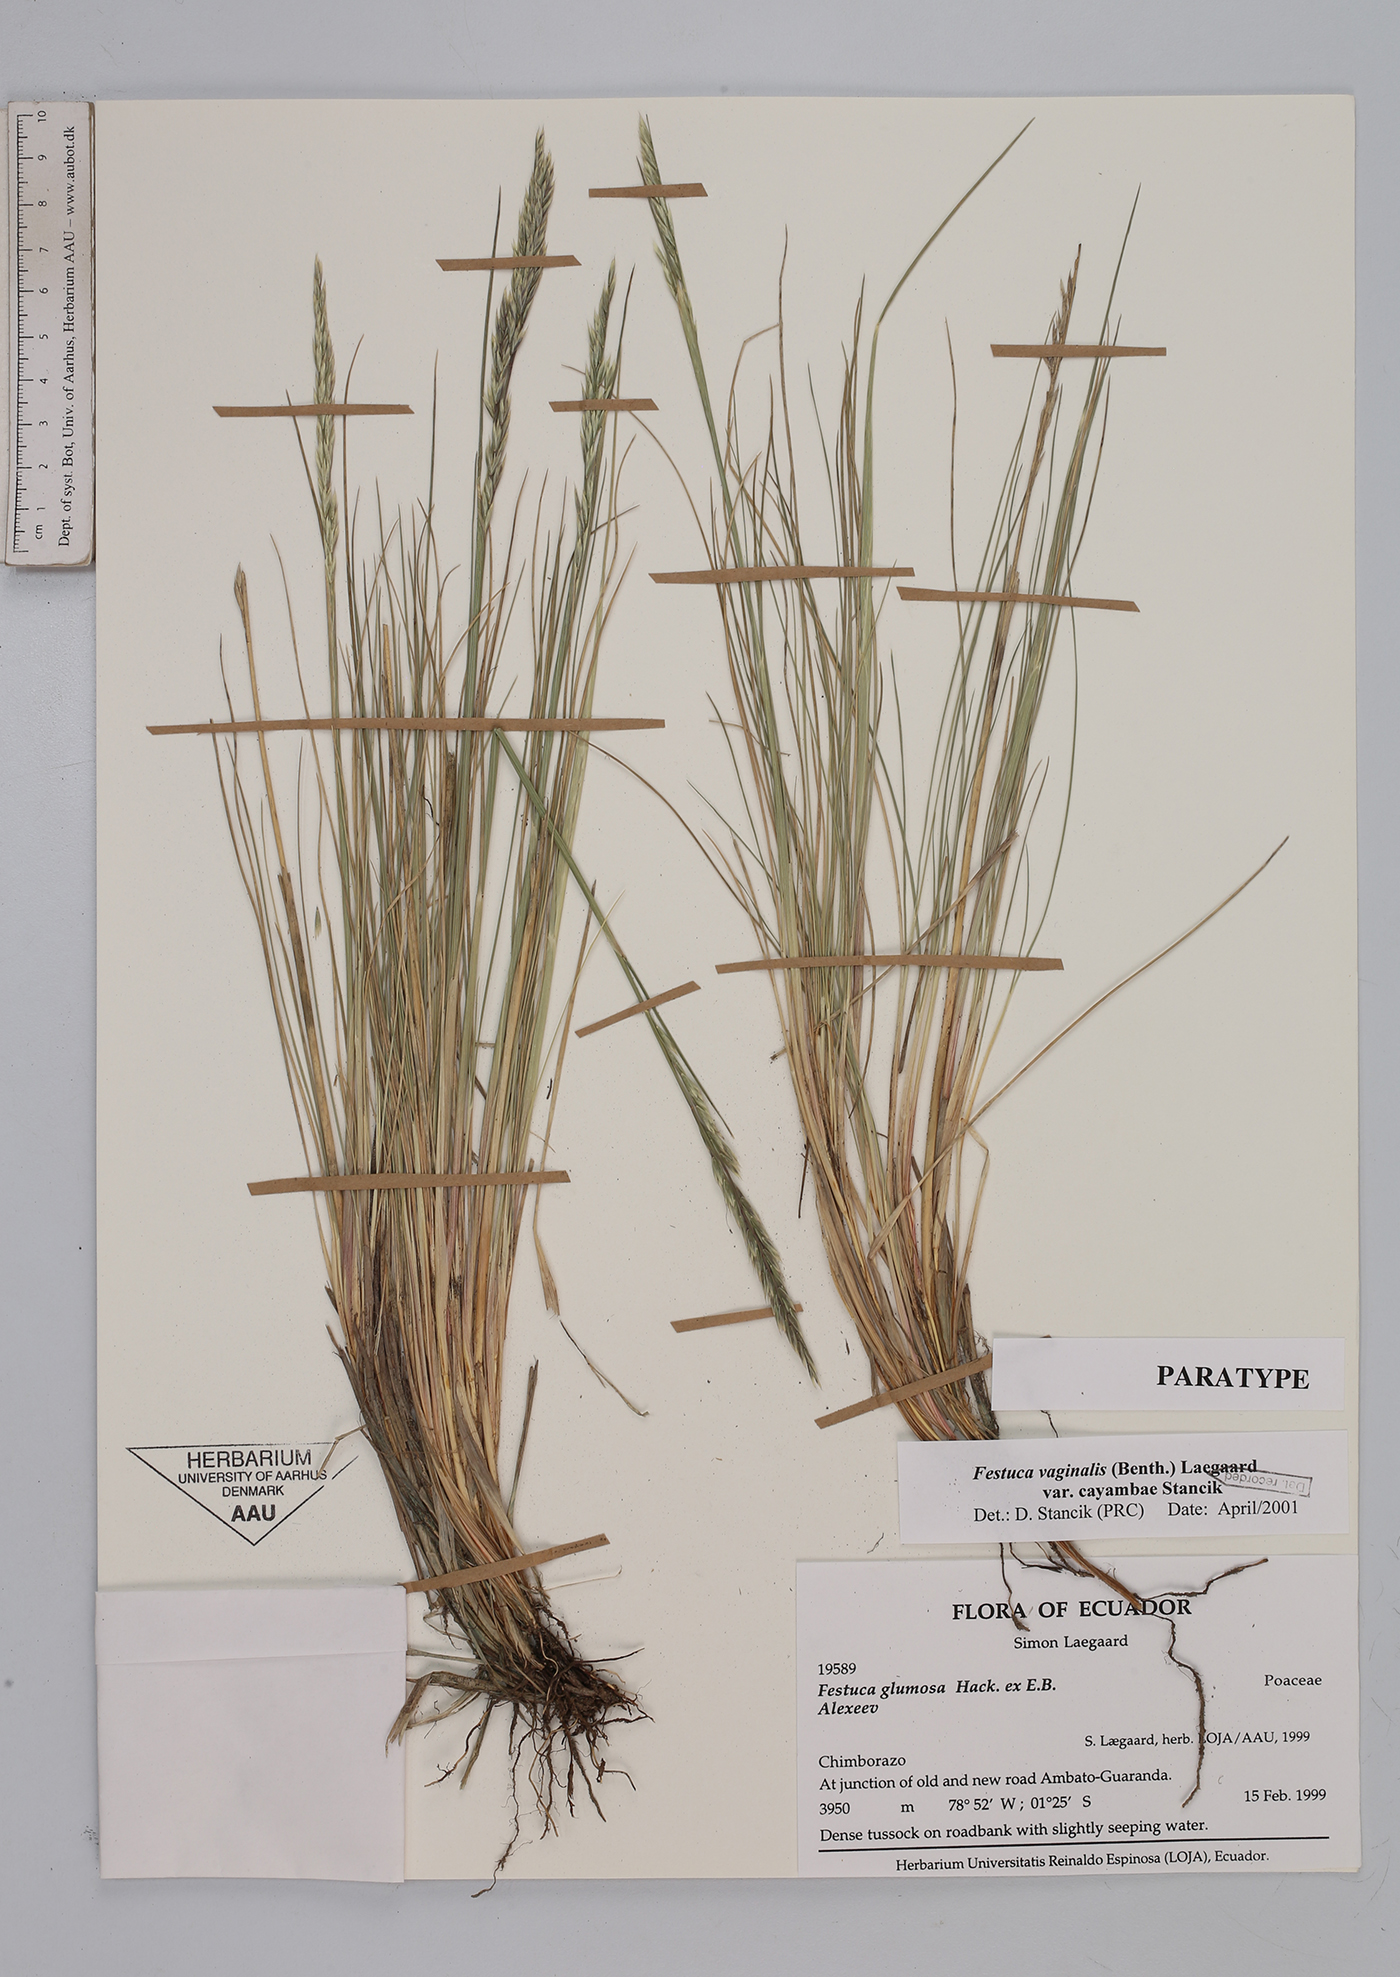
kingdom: Plantae
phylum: Tracheophyta
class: Liliopsida
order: Poales
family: Poaceae
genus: Festuca
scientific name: Festuca vaginalis
